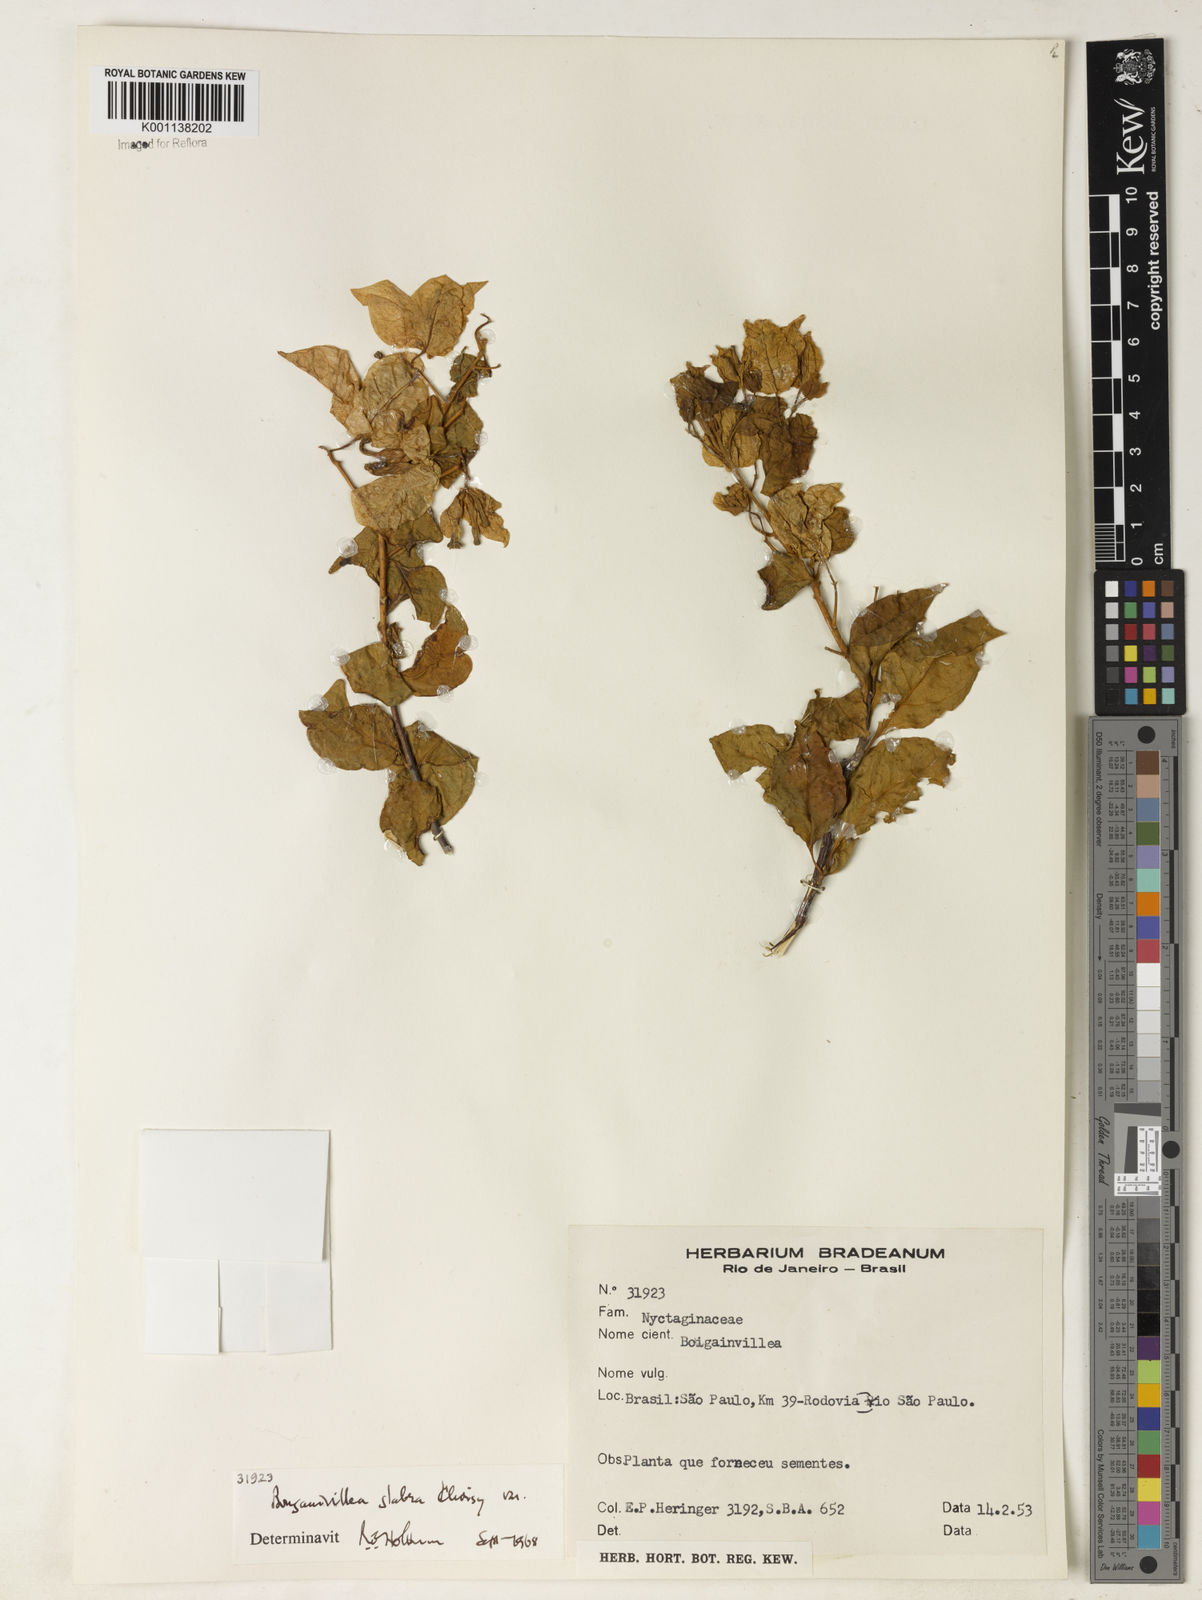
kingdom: Plantae
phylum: Tracheophyta
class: Magnoliopsida
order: Caryophyllales
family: Nyctaginaceae
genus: Bougainvillea
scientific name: Bougainvillea glabra
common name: Paperflower
